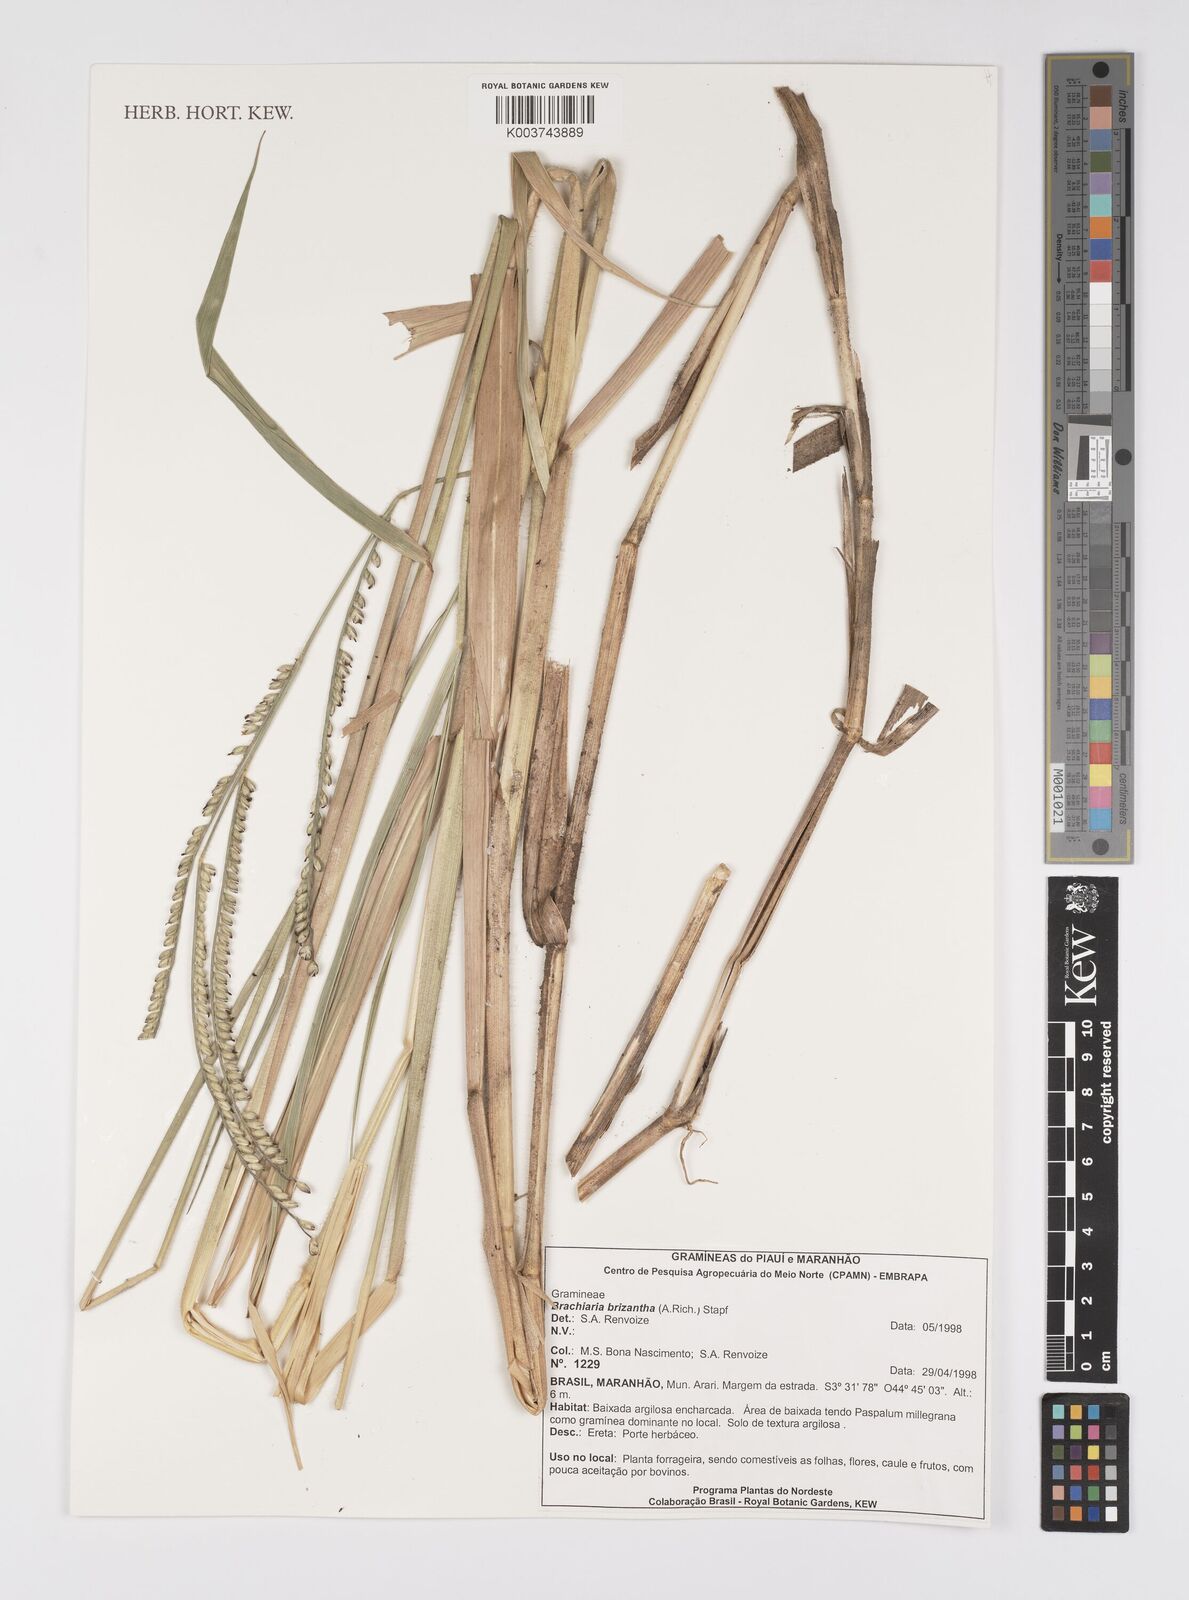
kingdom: Plantae
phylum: Tracheophyta
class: Liliopsida
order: Poales
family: Poaceae
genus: Urochloa
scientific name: Urochloa brizantha
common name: Palisade signalgrass
